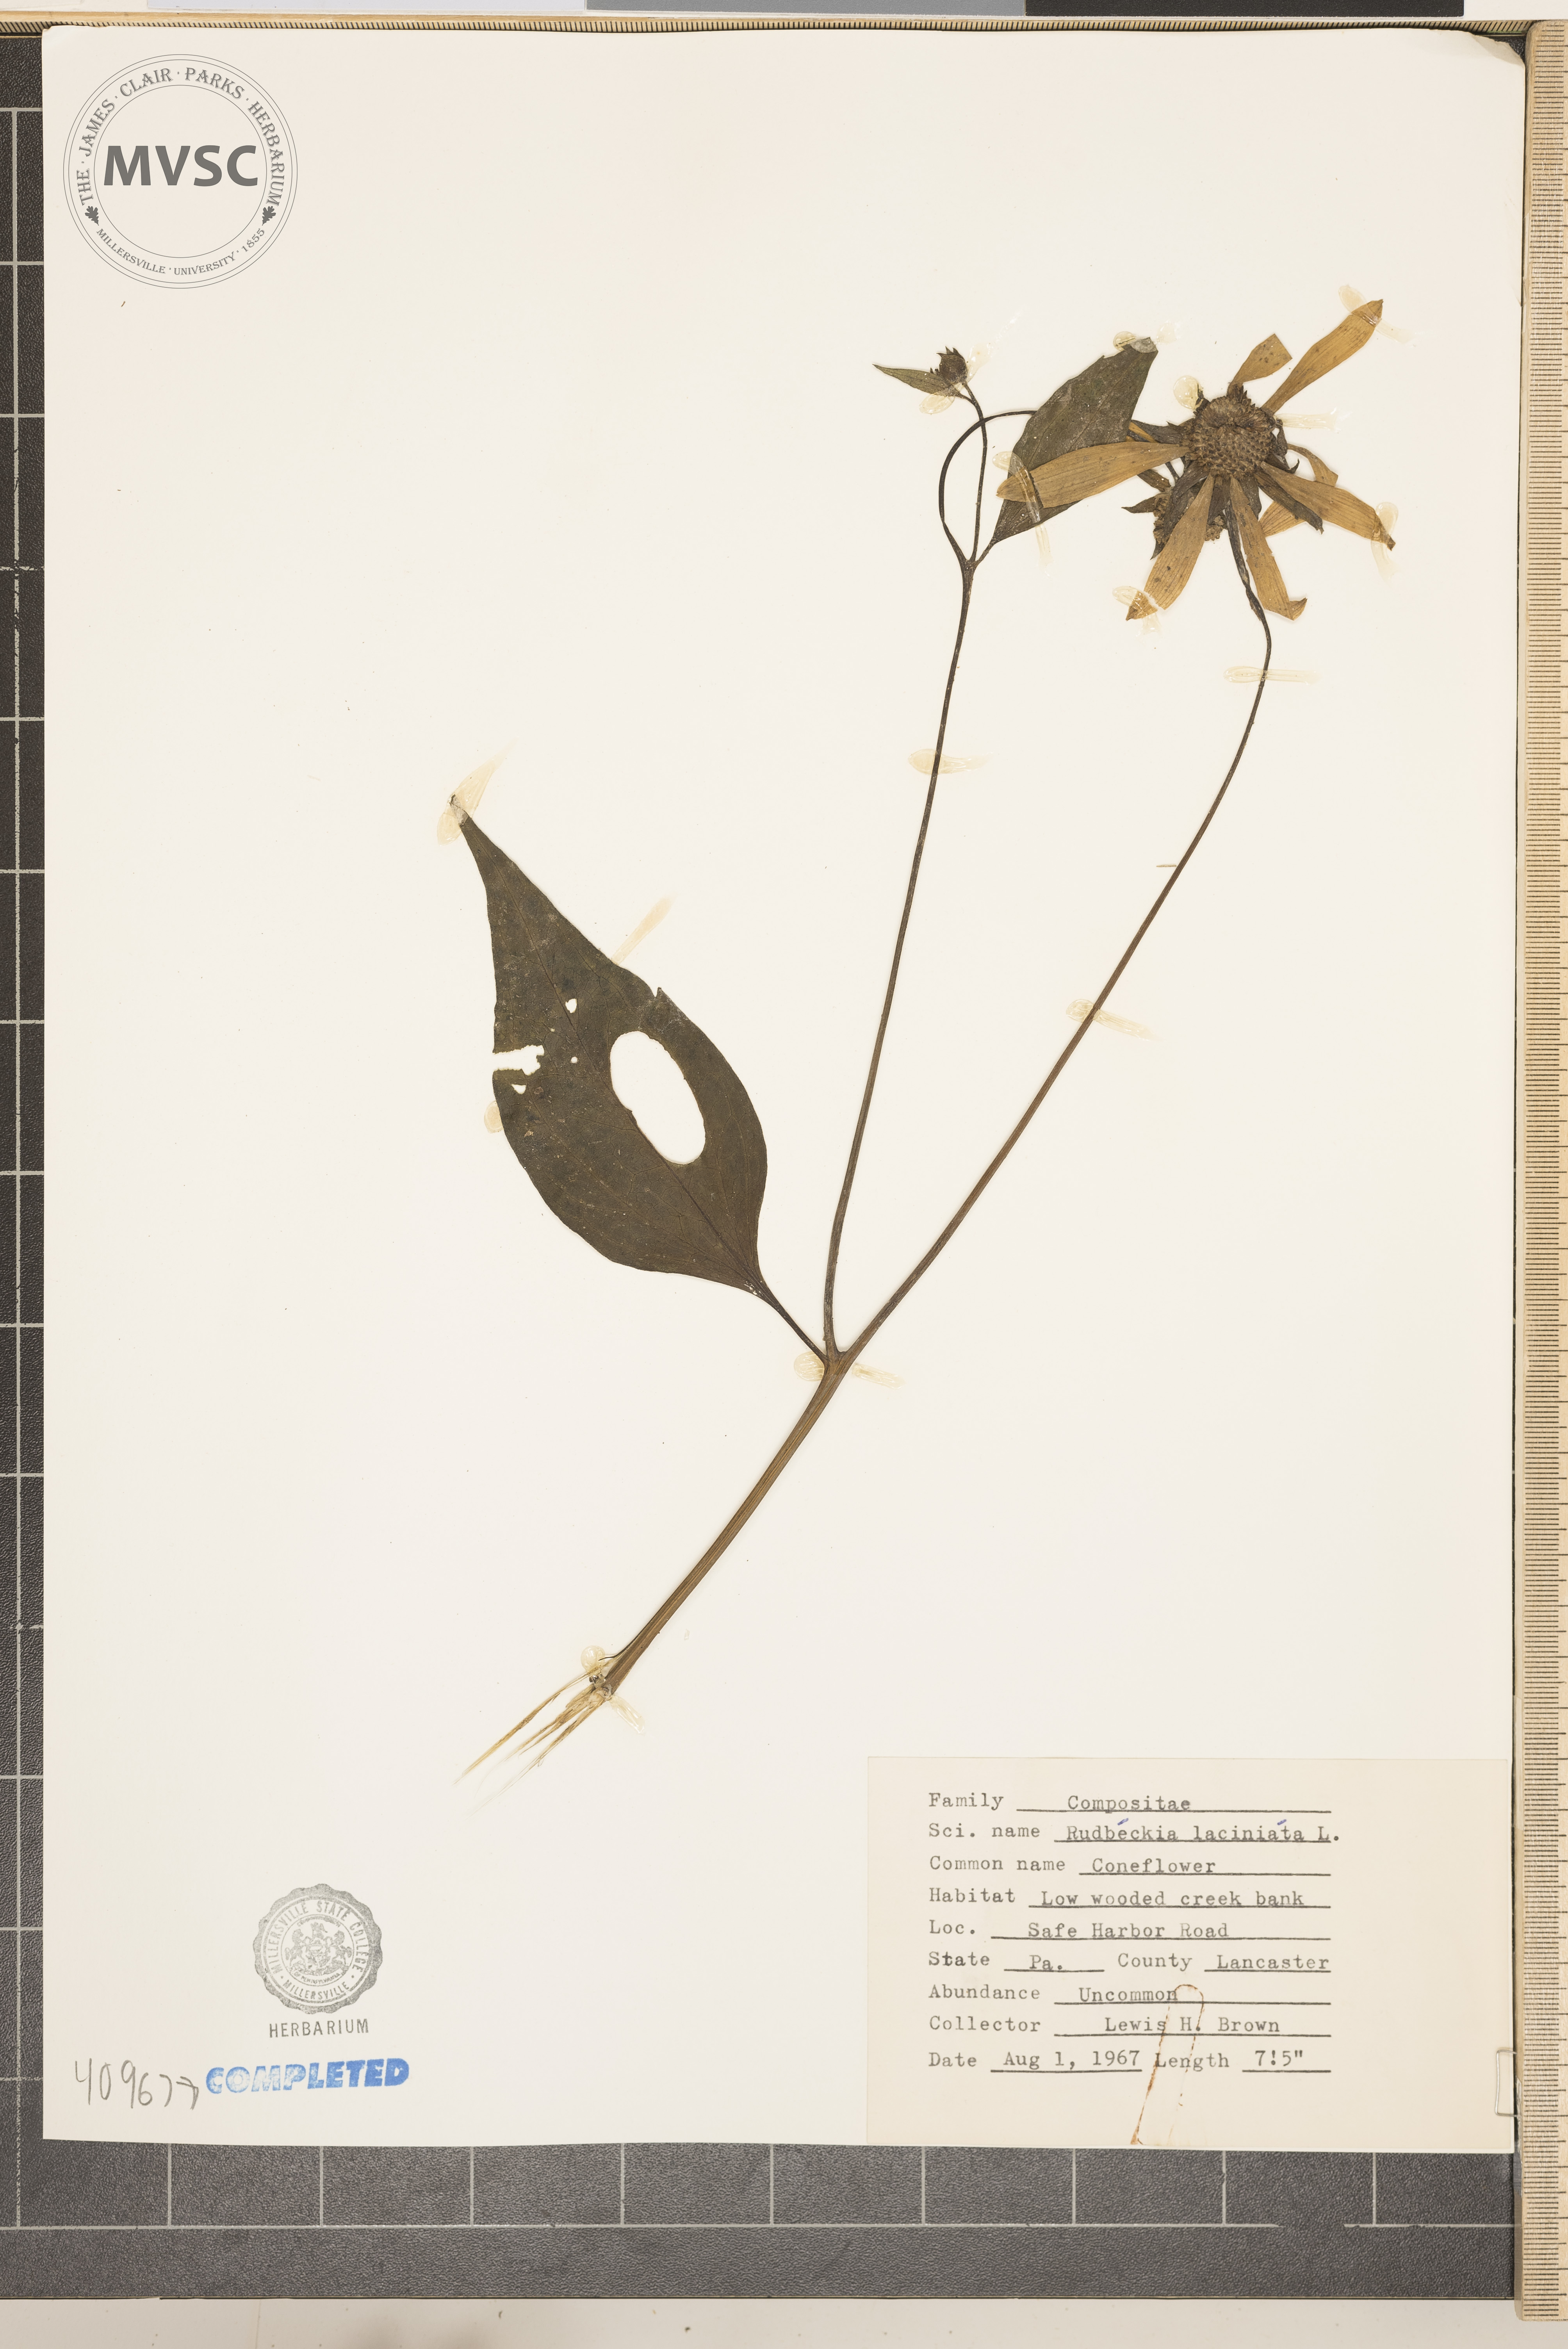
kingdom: Plantae
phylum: Tracheophyta
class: Magnoliopsida
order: Asterales
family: Asteraceae
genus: Rudbeckia
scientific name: Rudbeckia laciniata
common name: cutleaf coneflower
